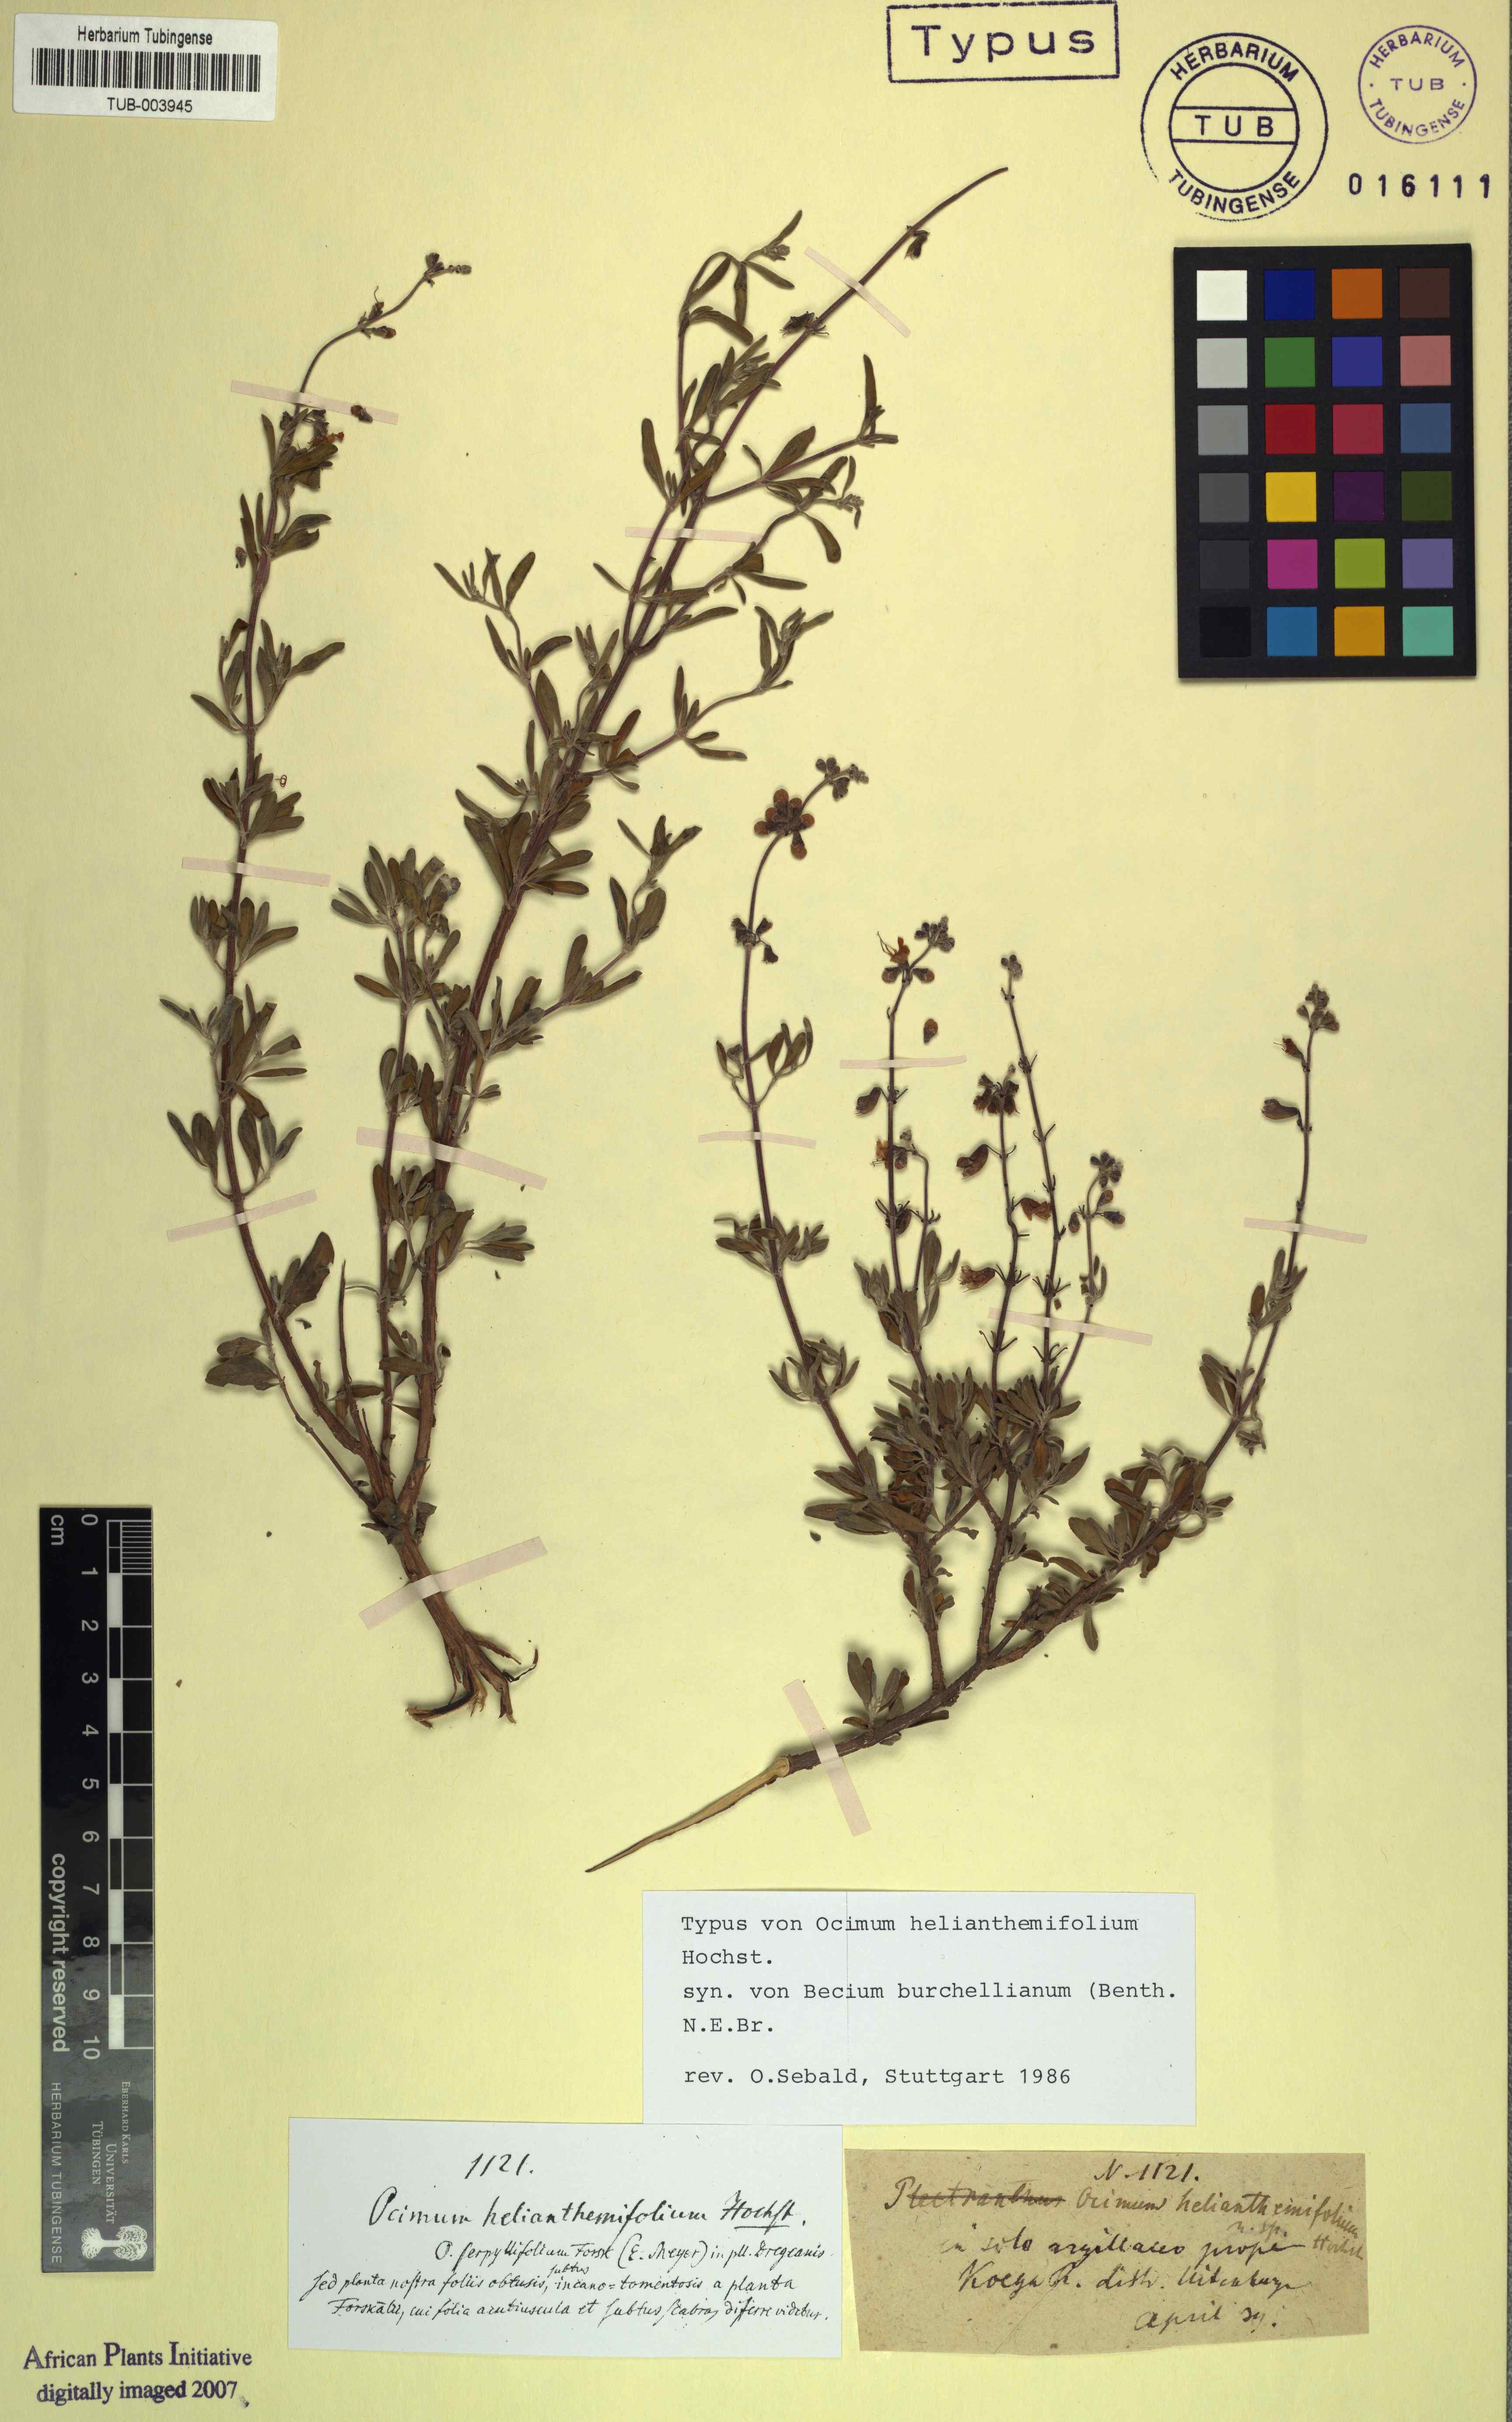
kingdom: Plantae
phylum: Tracheophyta
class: Magnoliopsida
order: Lamiales
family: Lamiaceae
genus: Ocimum
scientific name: Ocimum burchellianum
